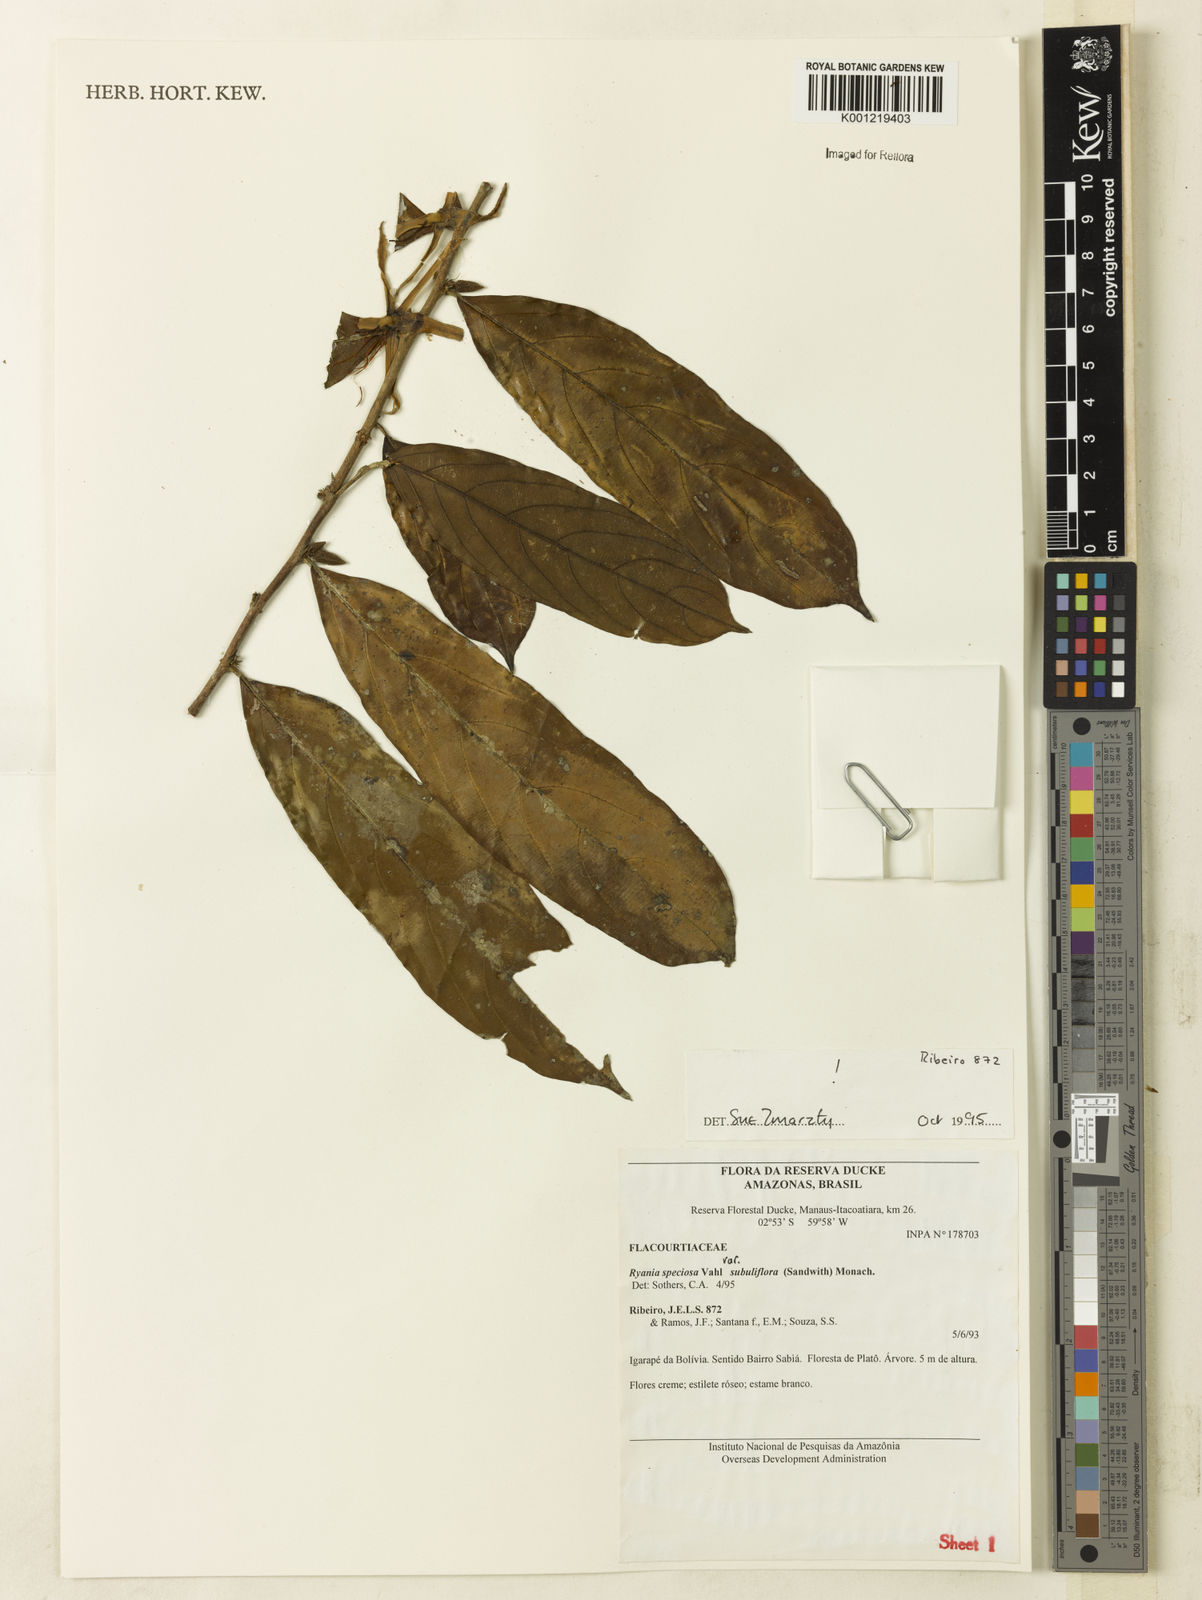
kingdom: Plantae
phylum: Tracheophyta
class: Magnoliopsida
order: Malpighiales
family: Salicaceae
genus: Ryania
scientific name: Ryania speciosa
